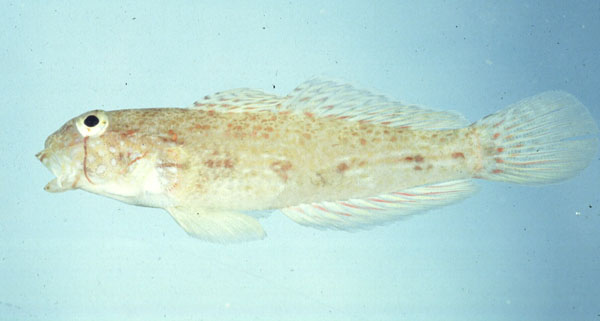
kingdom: Animalia
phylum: Chordata
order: Perciformes
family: Gobiidae
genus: Gnatholepis
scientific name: Gnatholepis
